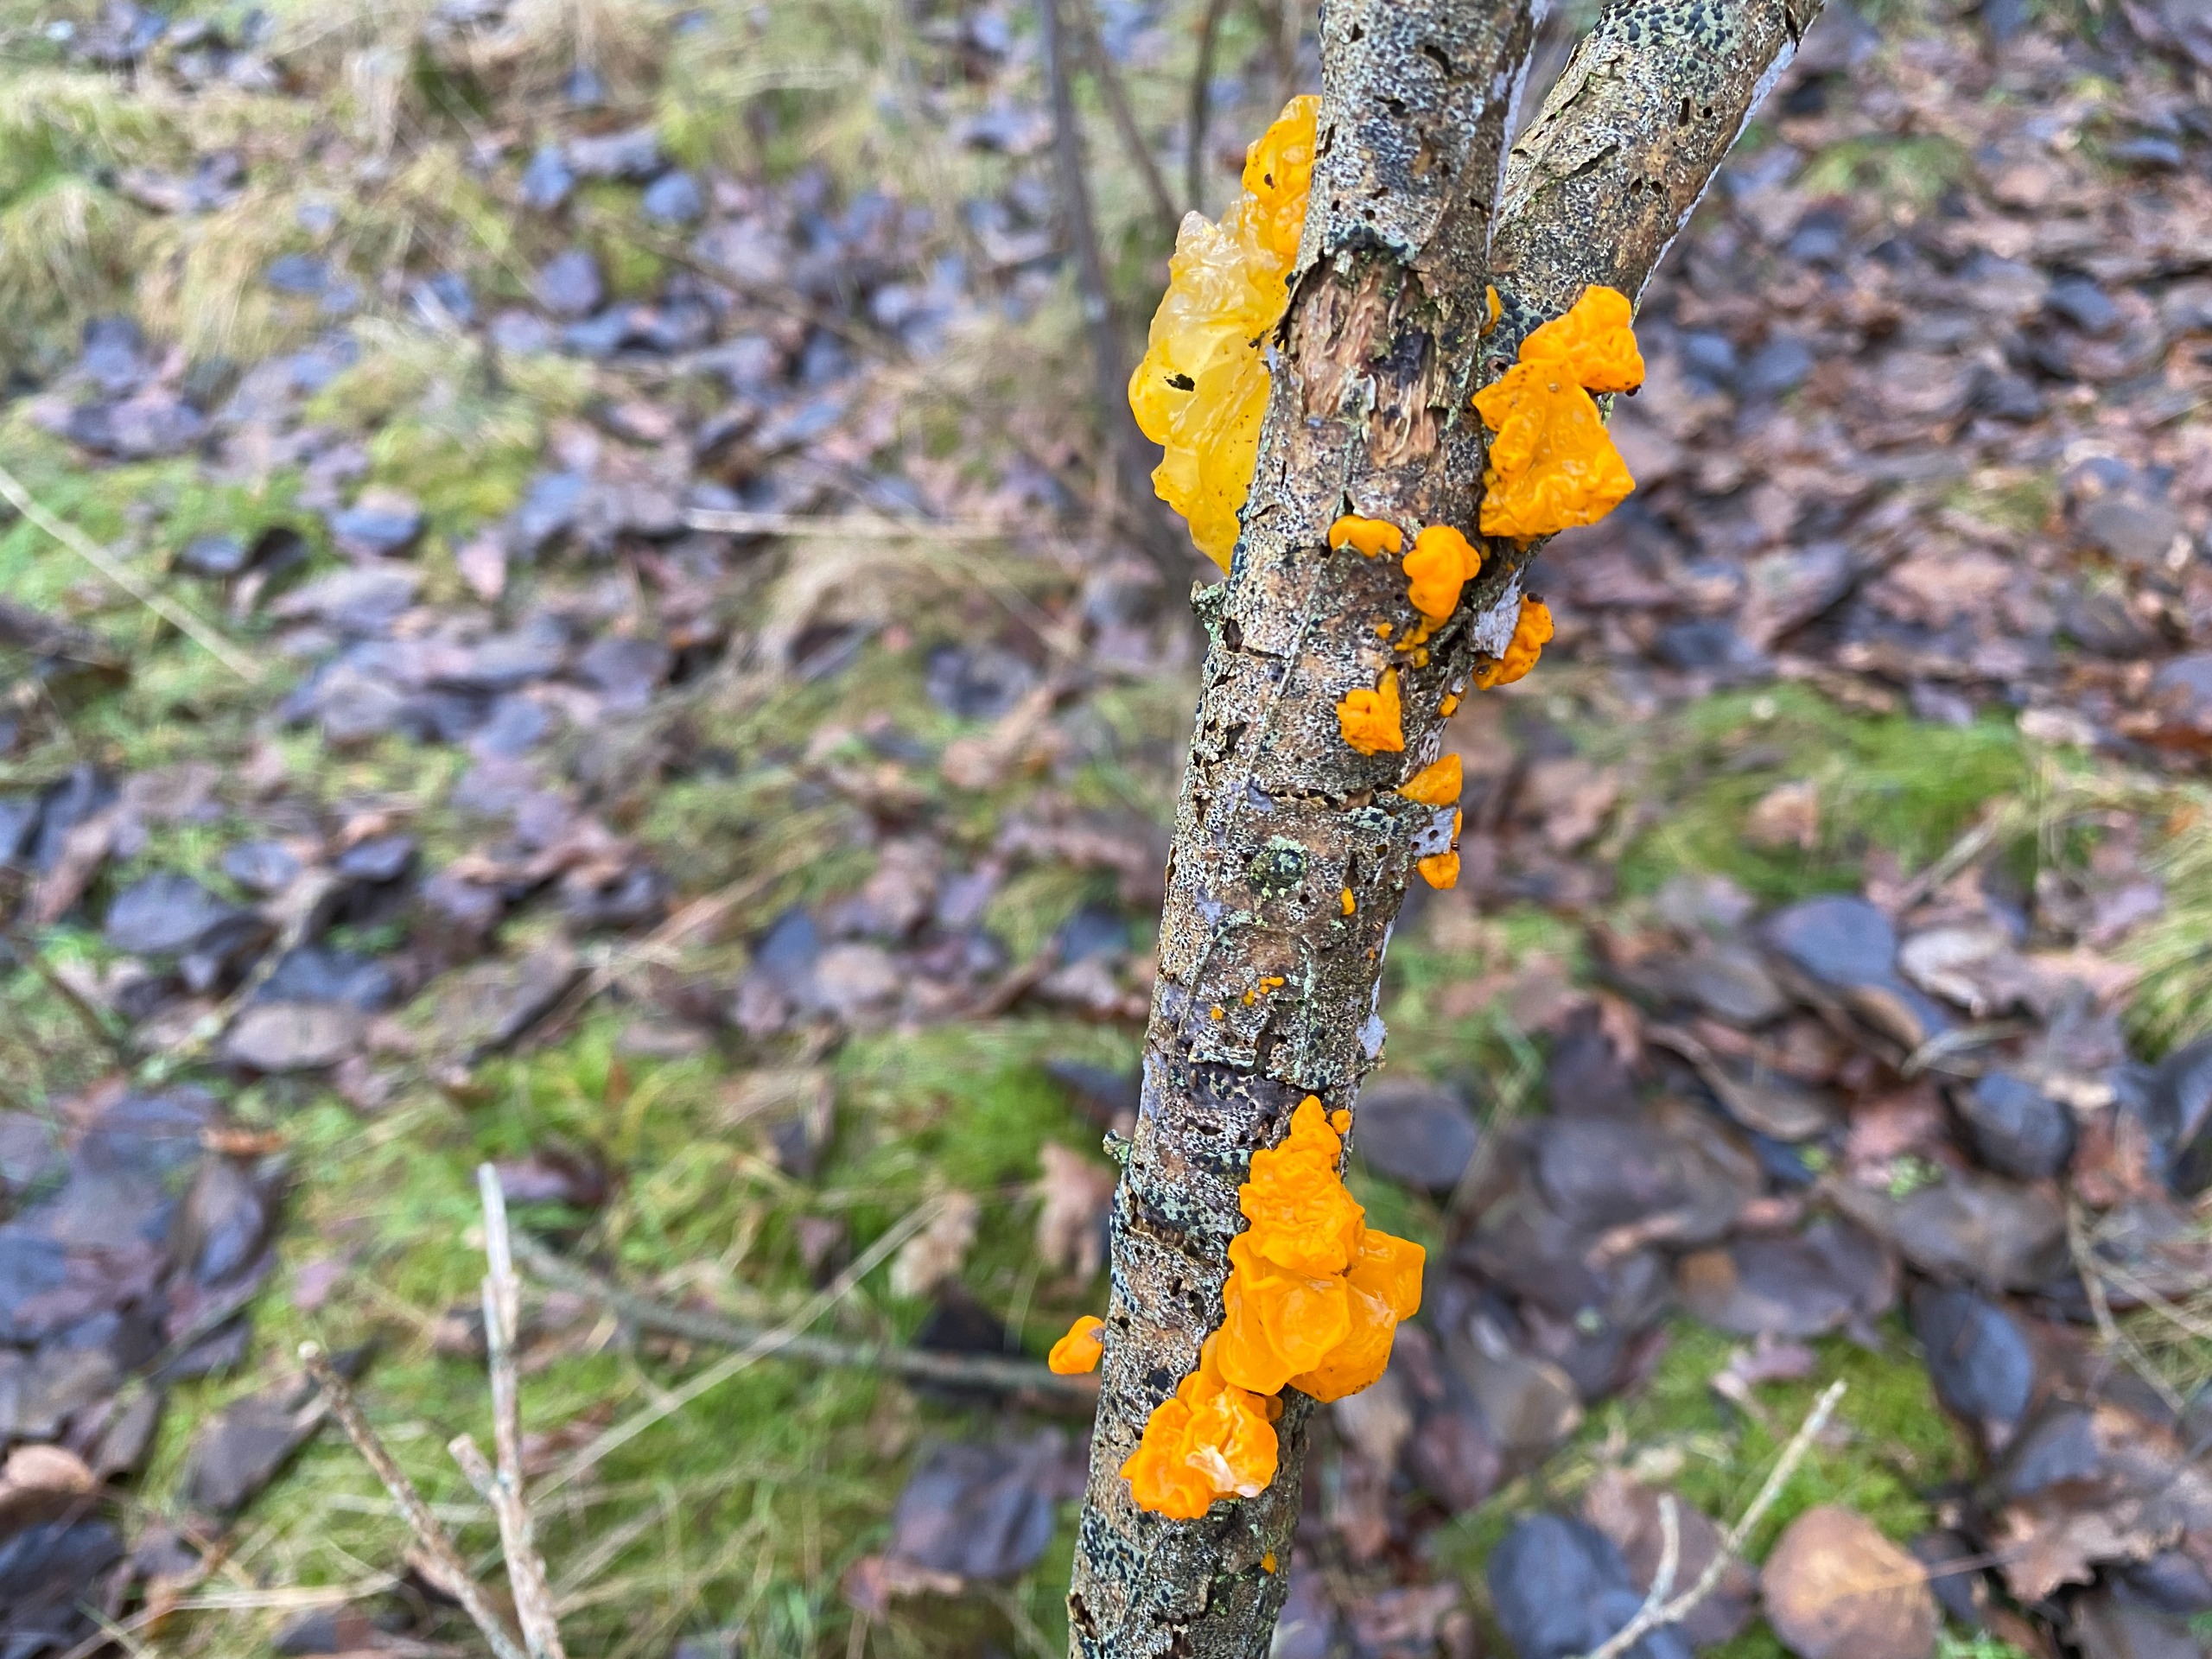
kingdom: Fungi
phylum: Basidiomycota
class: Tremellomycetes
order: Tremellales
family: Tremellaceae
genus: Tremella
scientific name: Tremella mesenterica
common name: Gul bævresvamp
